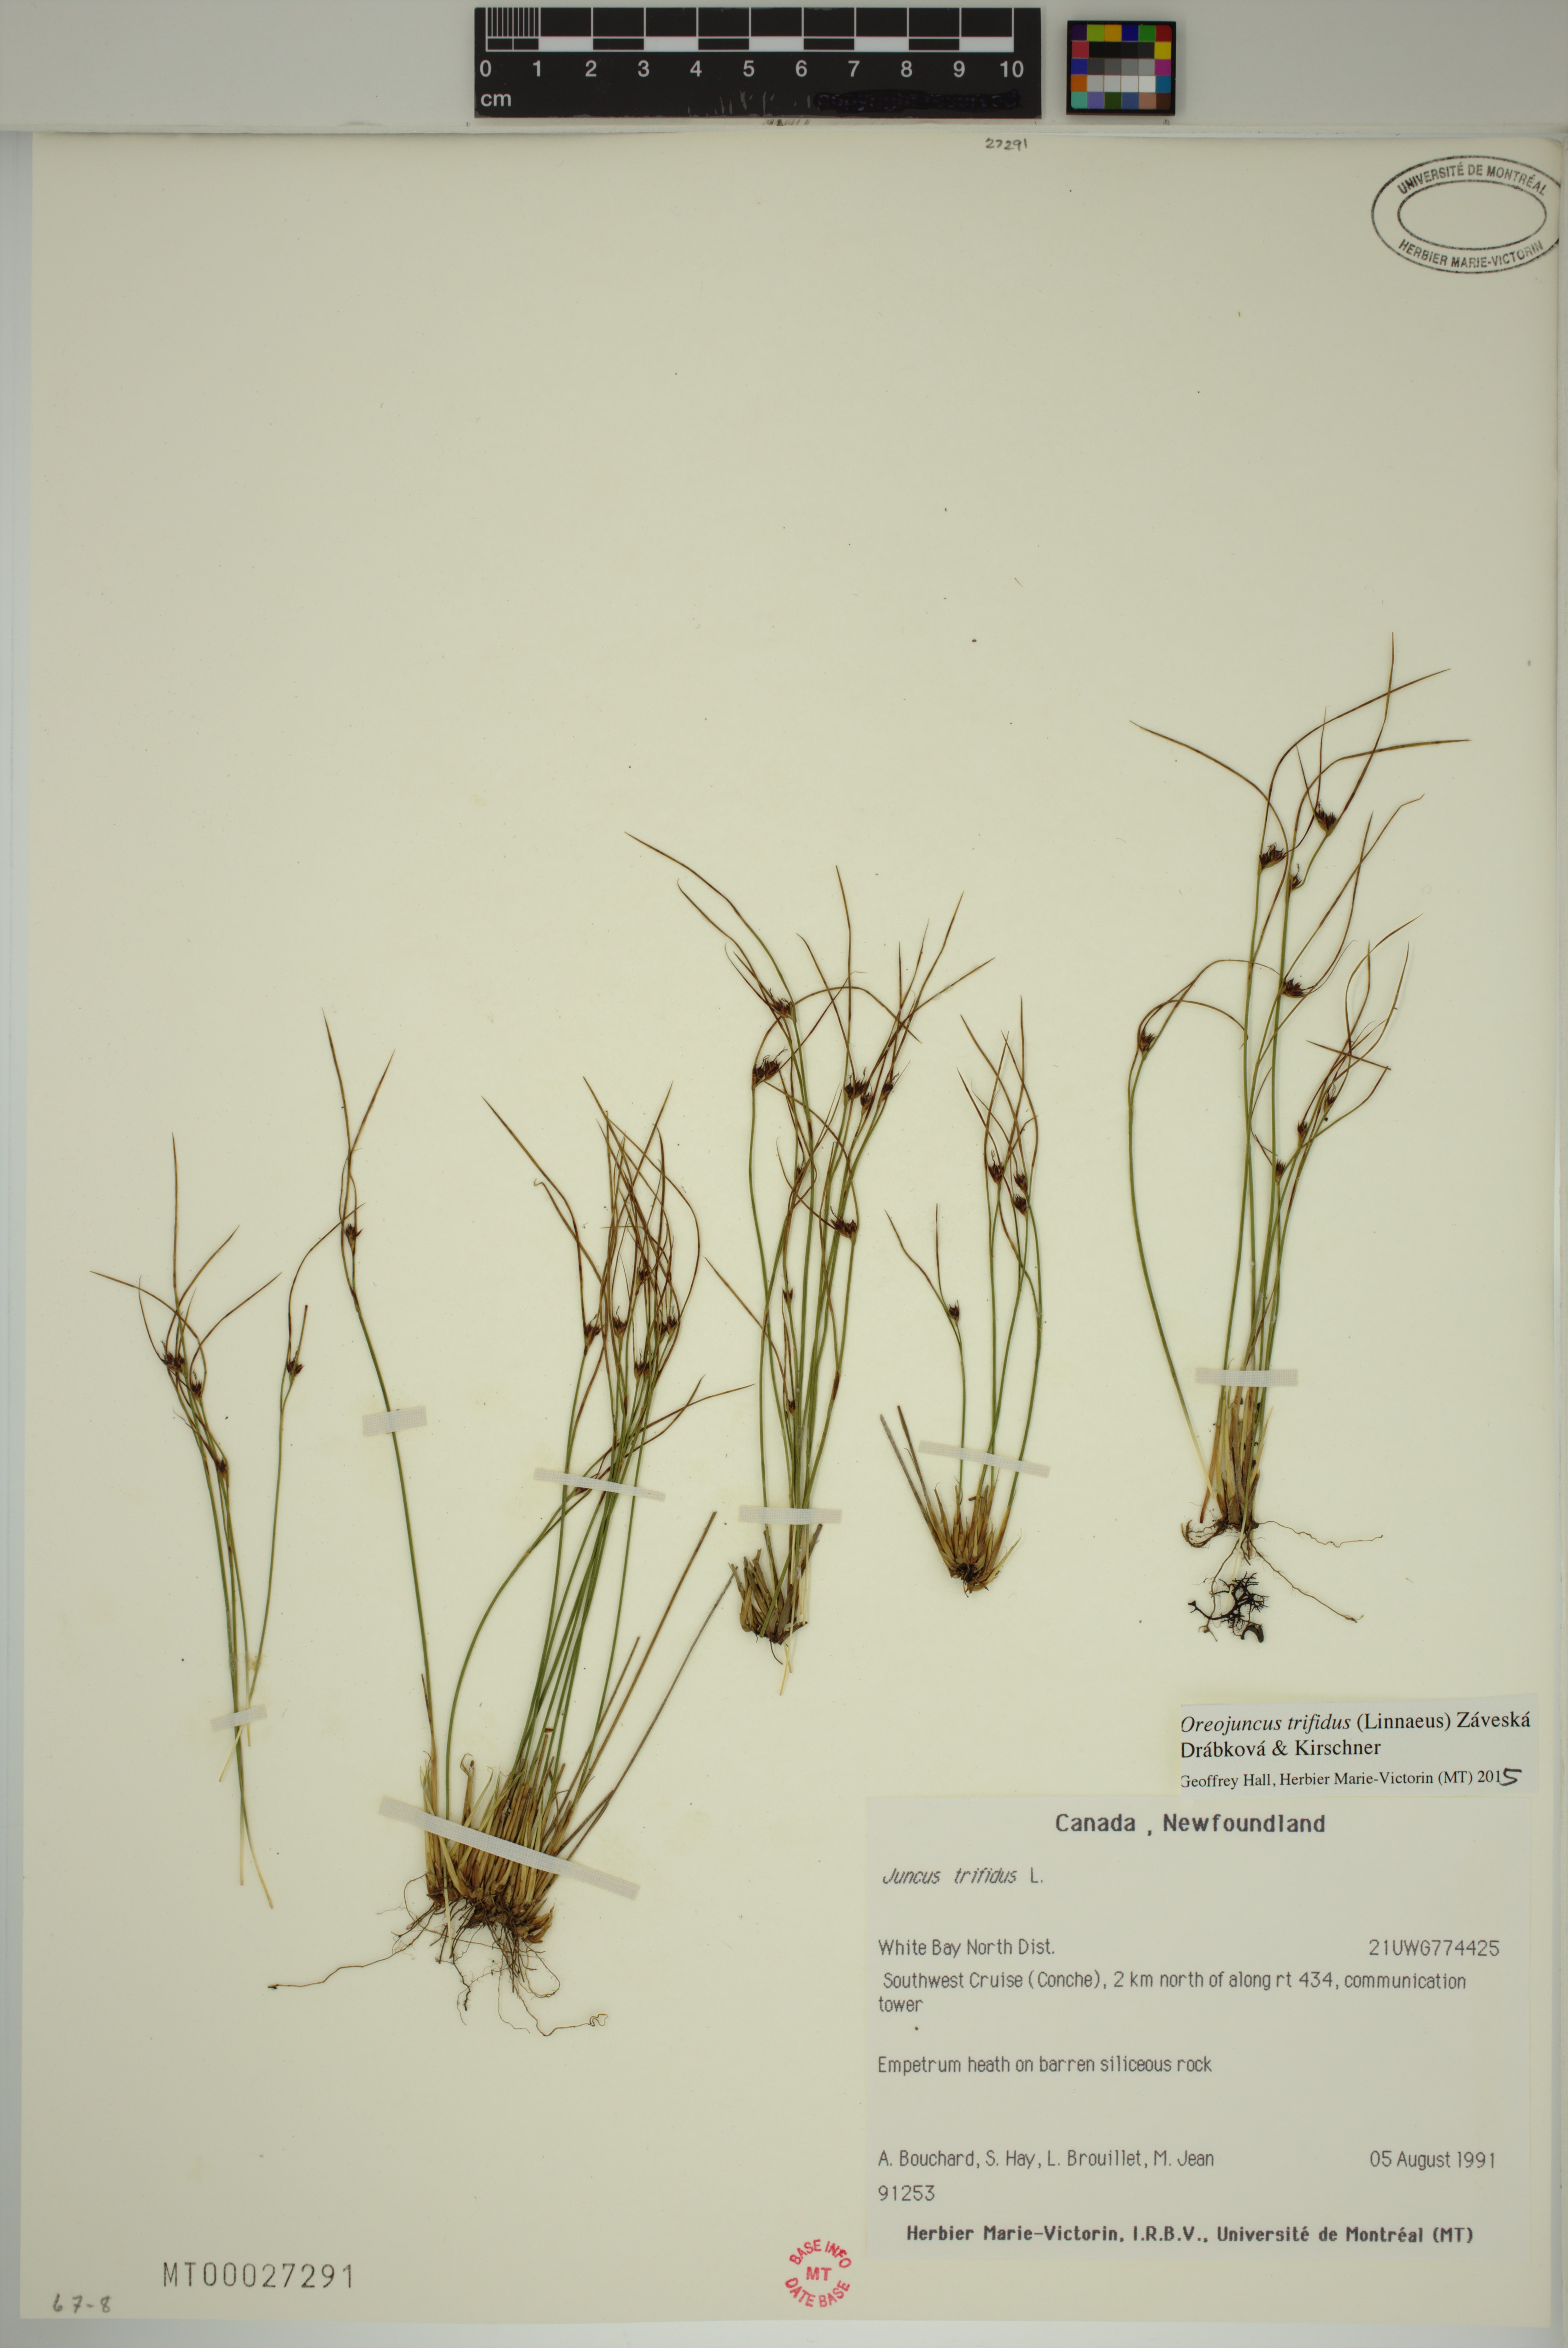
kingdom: Plantae
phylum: Tracheophyta
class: Liliopsida
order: Poales
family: Juncaceae
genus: Oreojuncus
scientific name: Oreojuncus trifidus
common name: Highland rush
